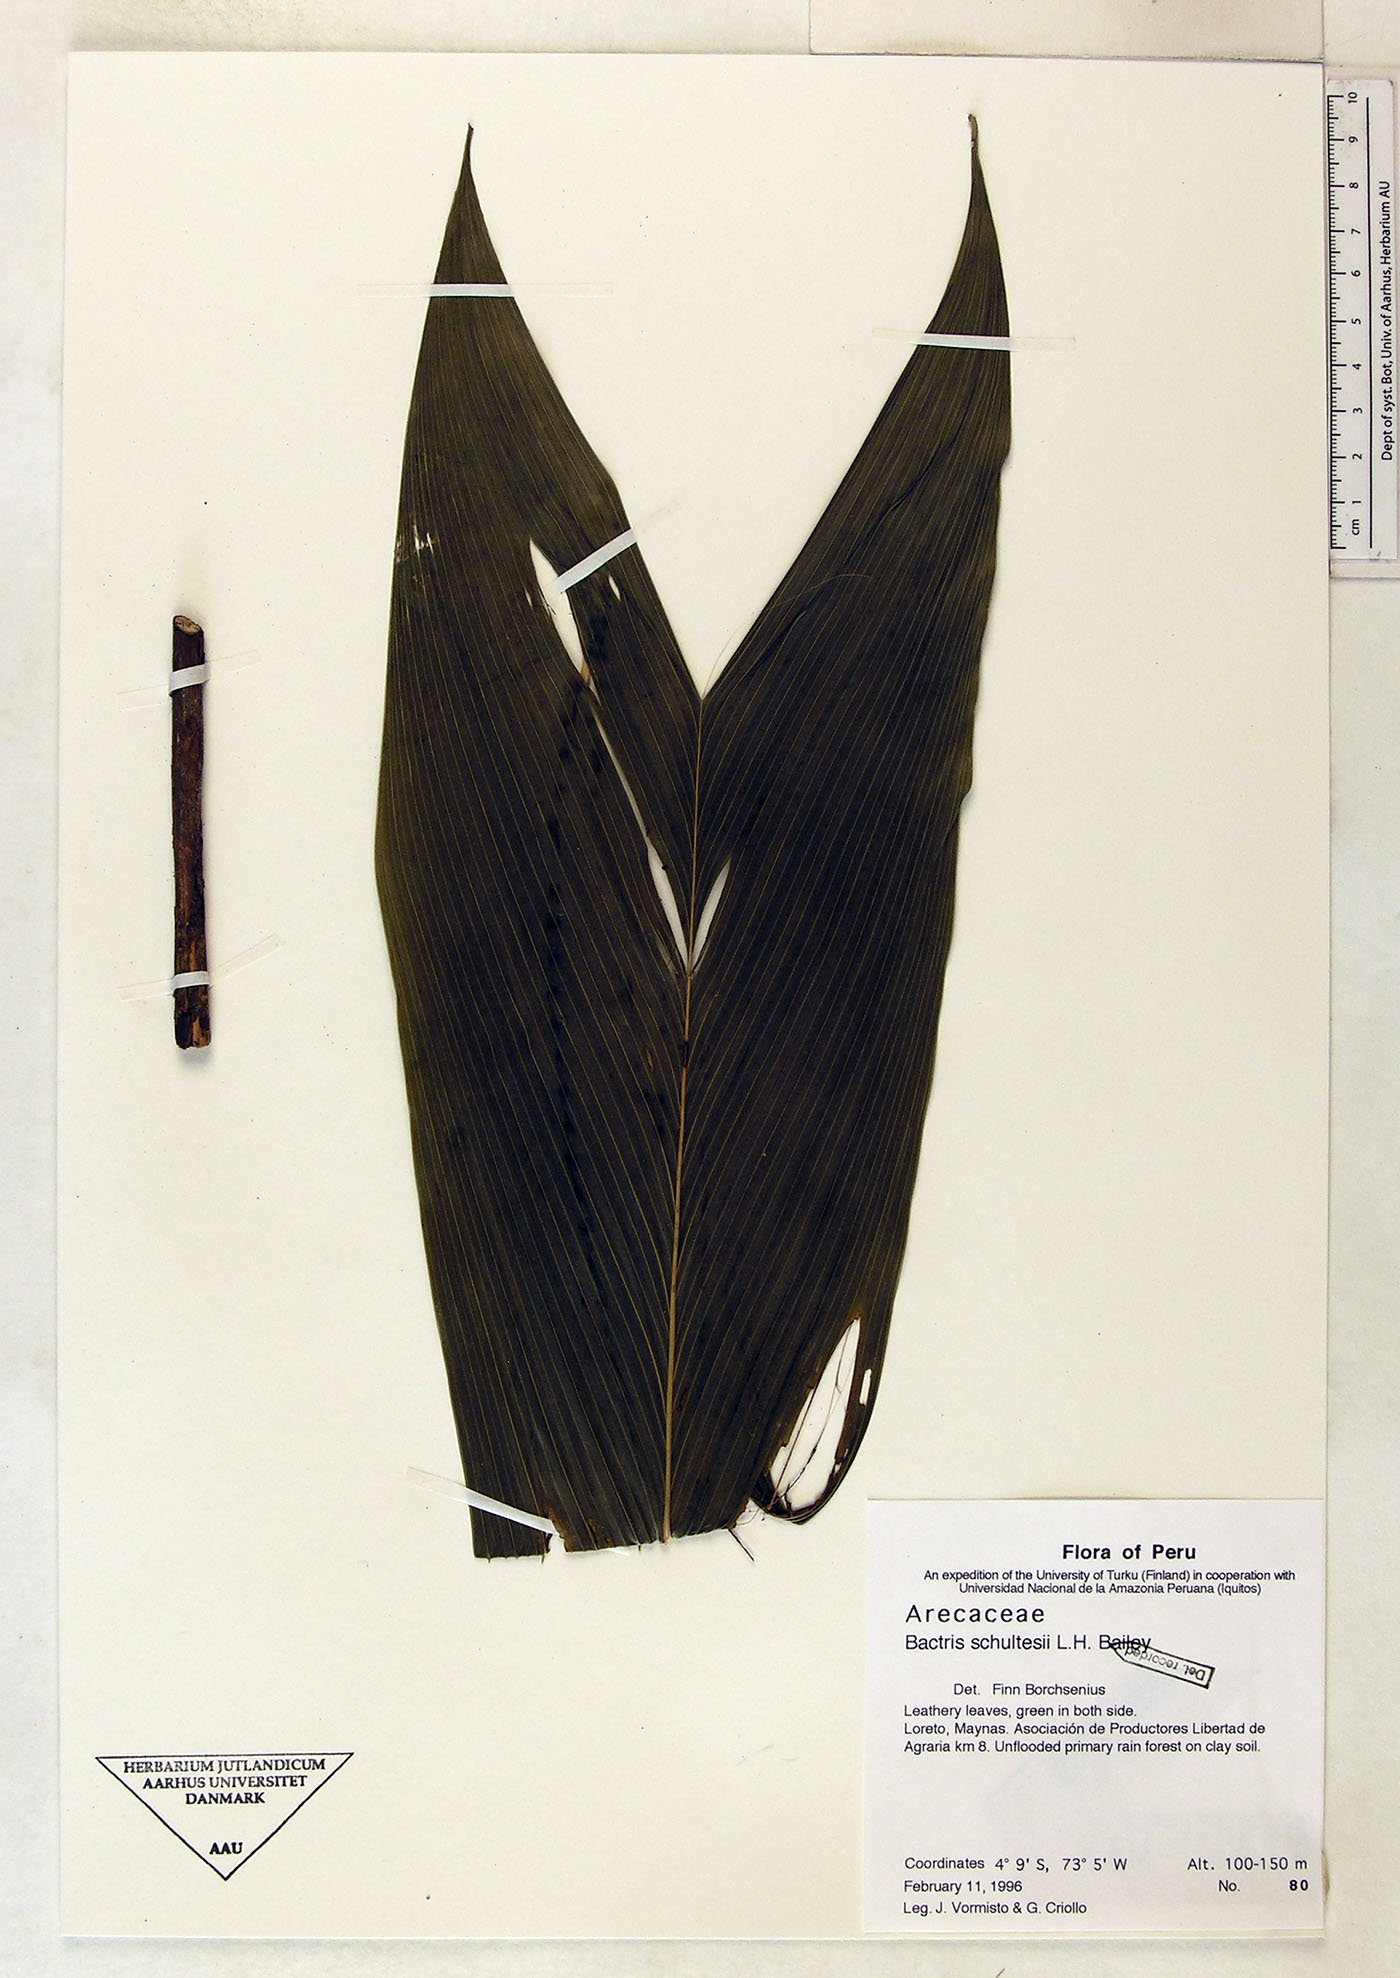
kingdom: Plantae
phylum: Tracheophyta
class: Liliopsida
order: Arecales
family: Arecaceae
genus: Bactris
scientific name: Bactris schultesii
